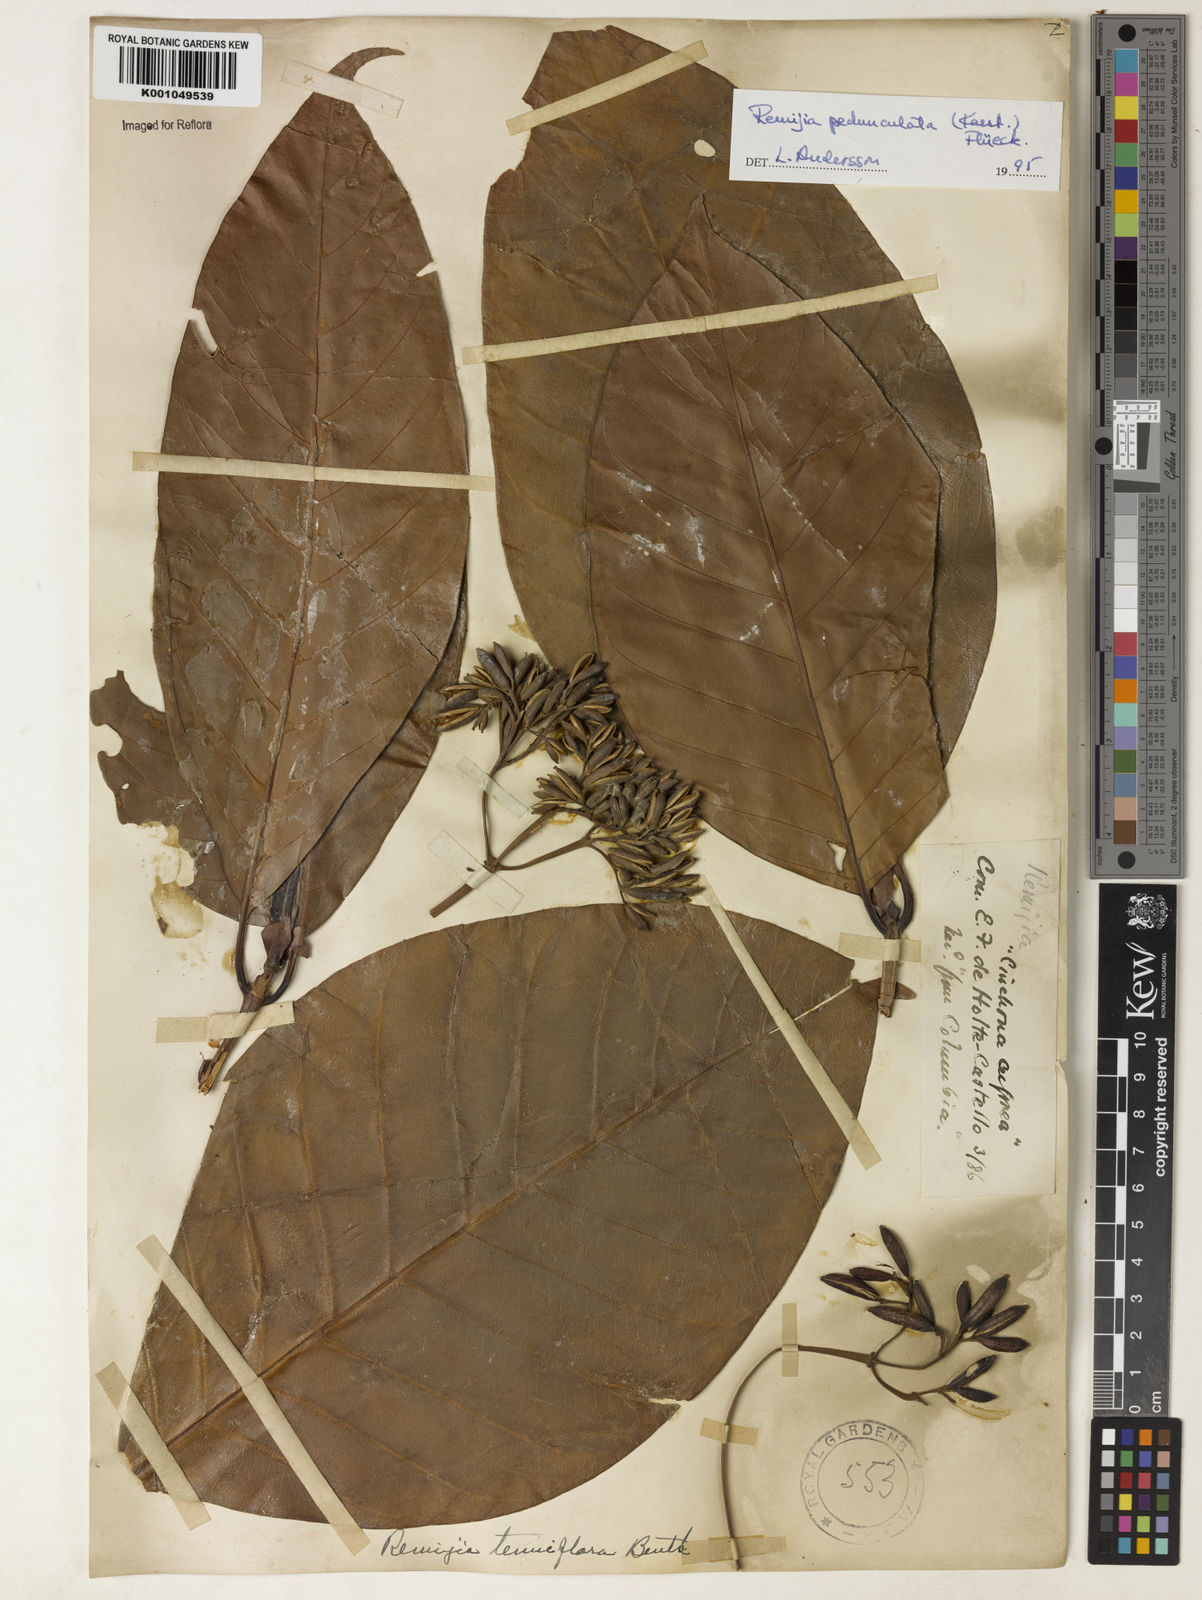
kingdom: Plantae
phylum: Tracheophyta
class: Magnoliopsida
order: Gentianales
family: Rubiaceae
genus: Ciliosemina
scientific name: Ciliosemina pedunculata
